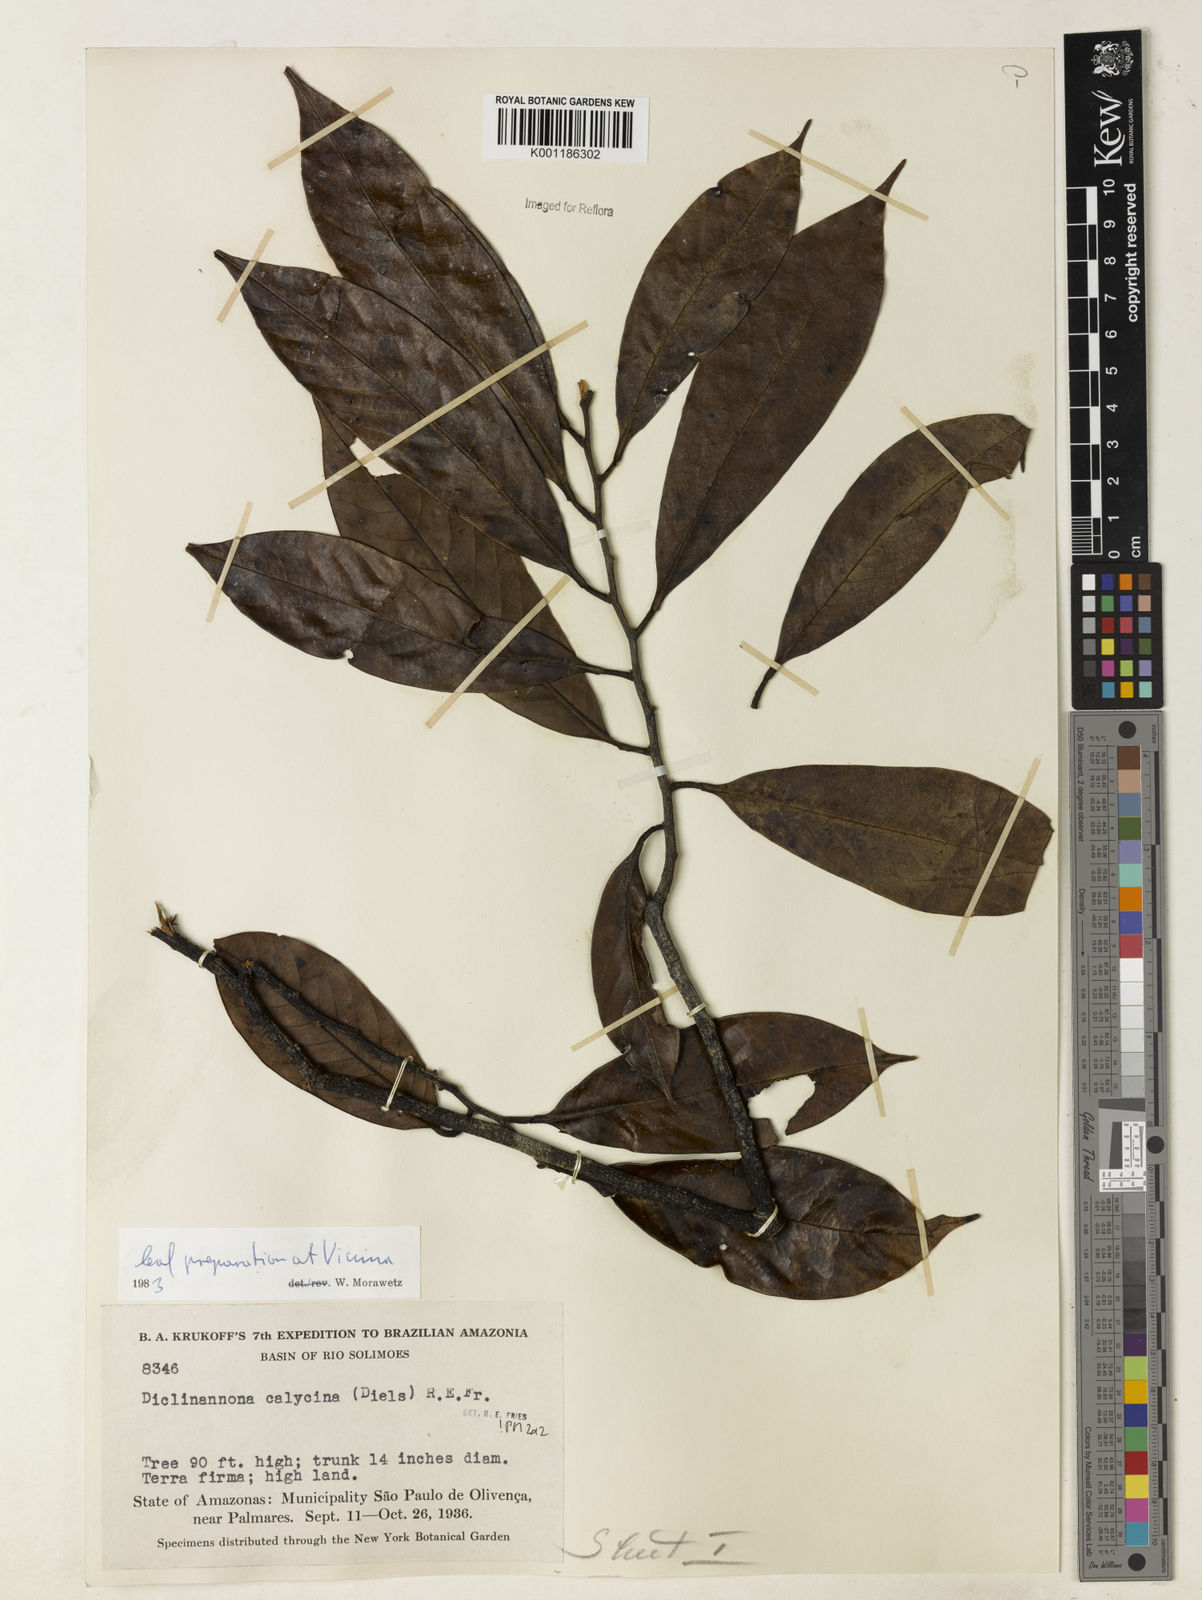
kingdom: Plantae
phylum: Tracheophyta
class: Magnoliopsida
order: Magnoliales
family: Annonaceae
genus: Diclinanona
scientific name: Diclinanona calycina
